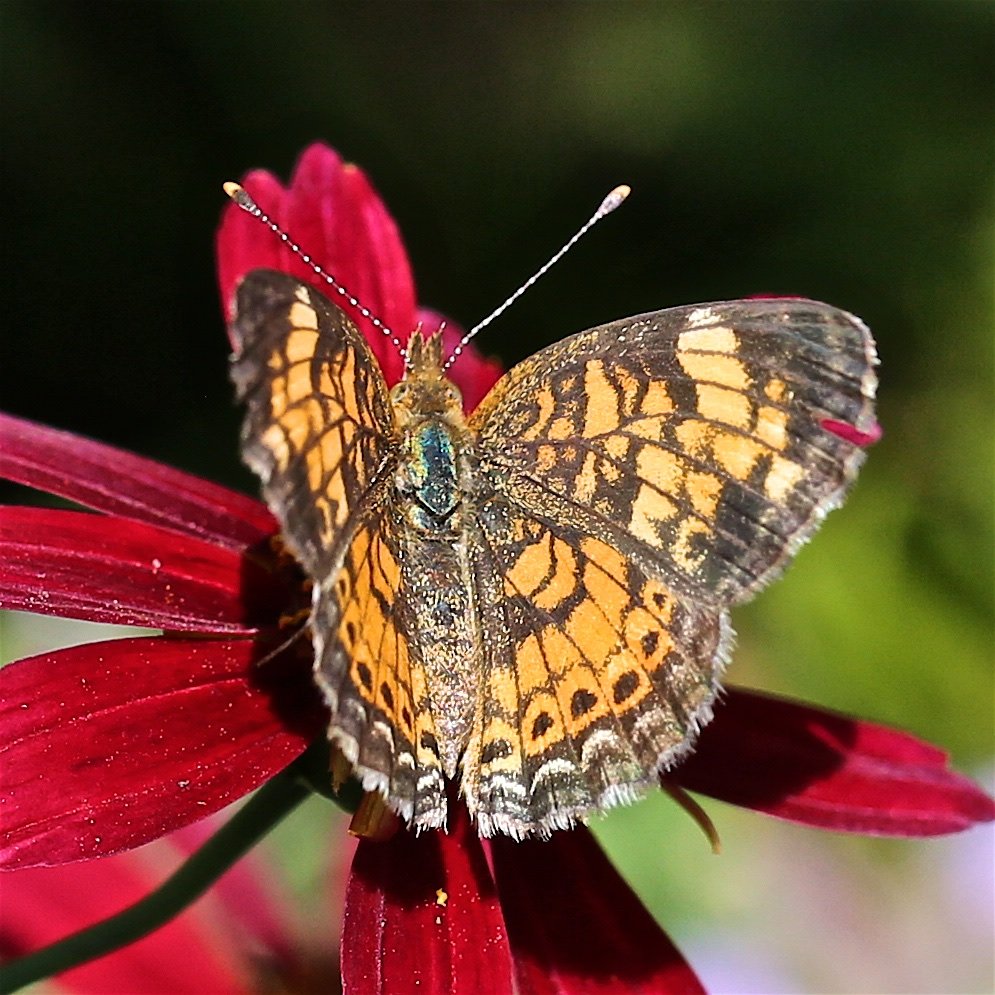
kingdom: Animalia
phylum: Arthropoda
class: Insecta
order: Lepidoptera
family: Nymphalidae
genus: Phyciodes
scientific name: Phyciodes tharos
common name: Pearl Crescent
